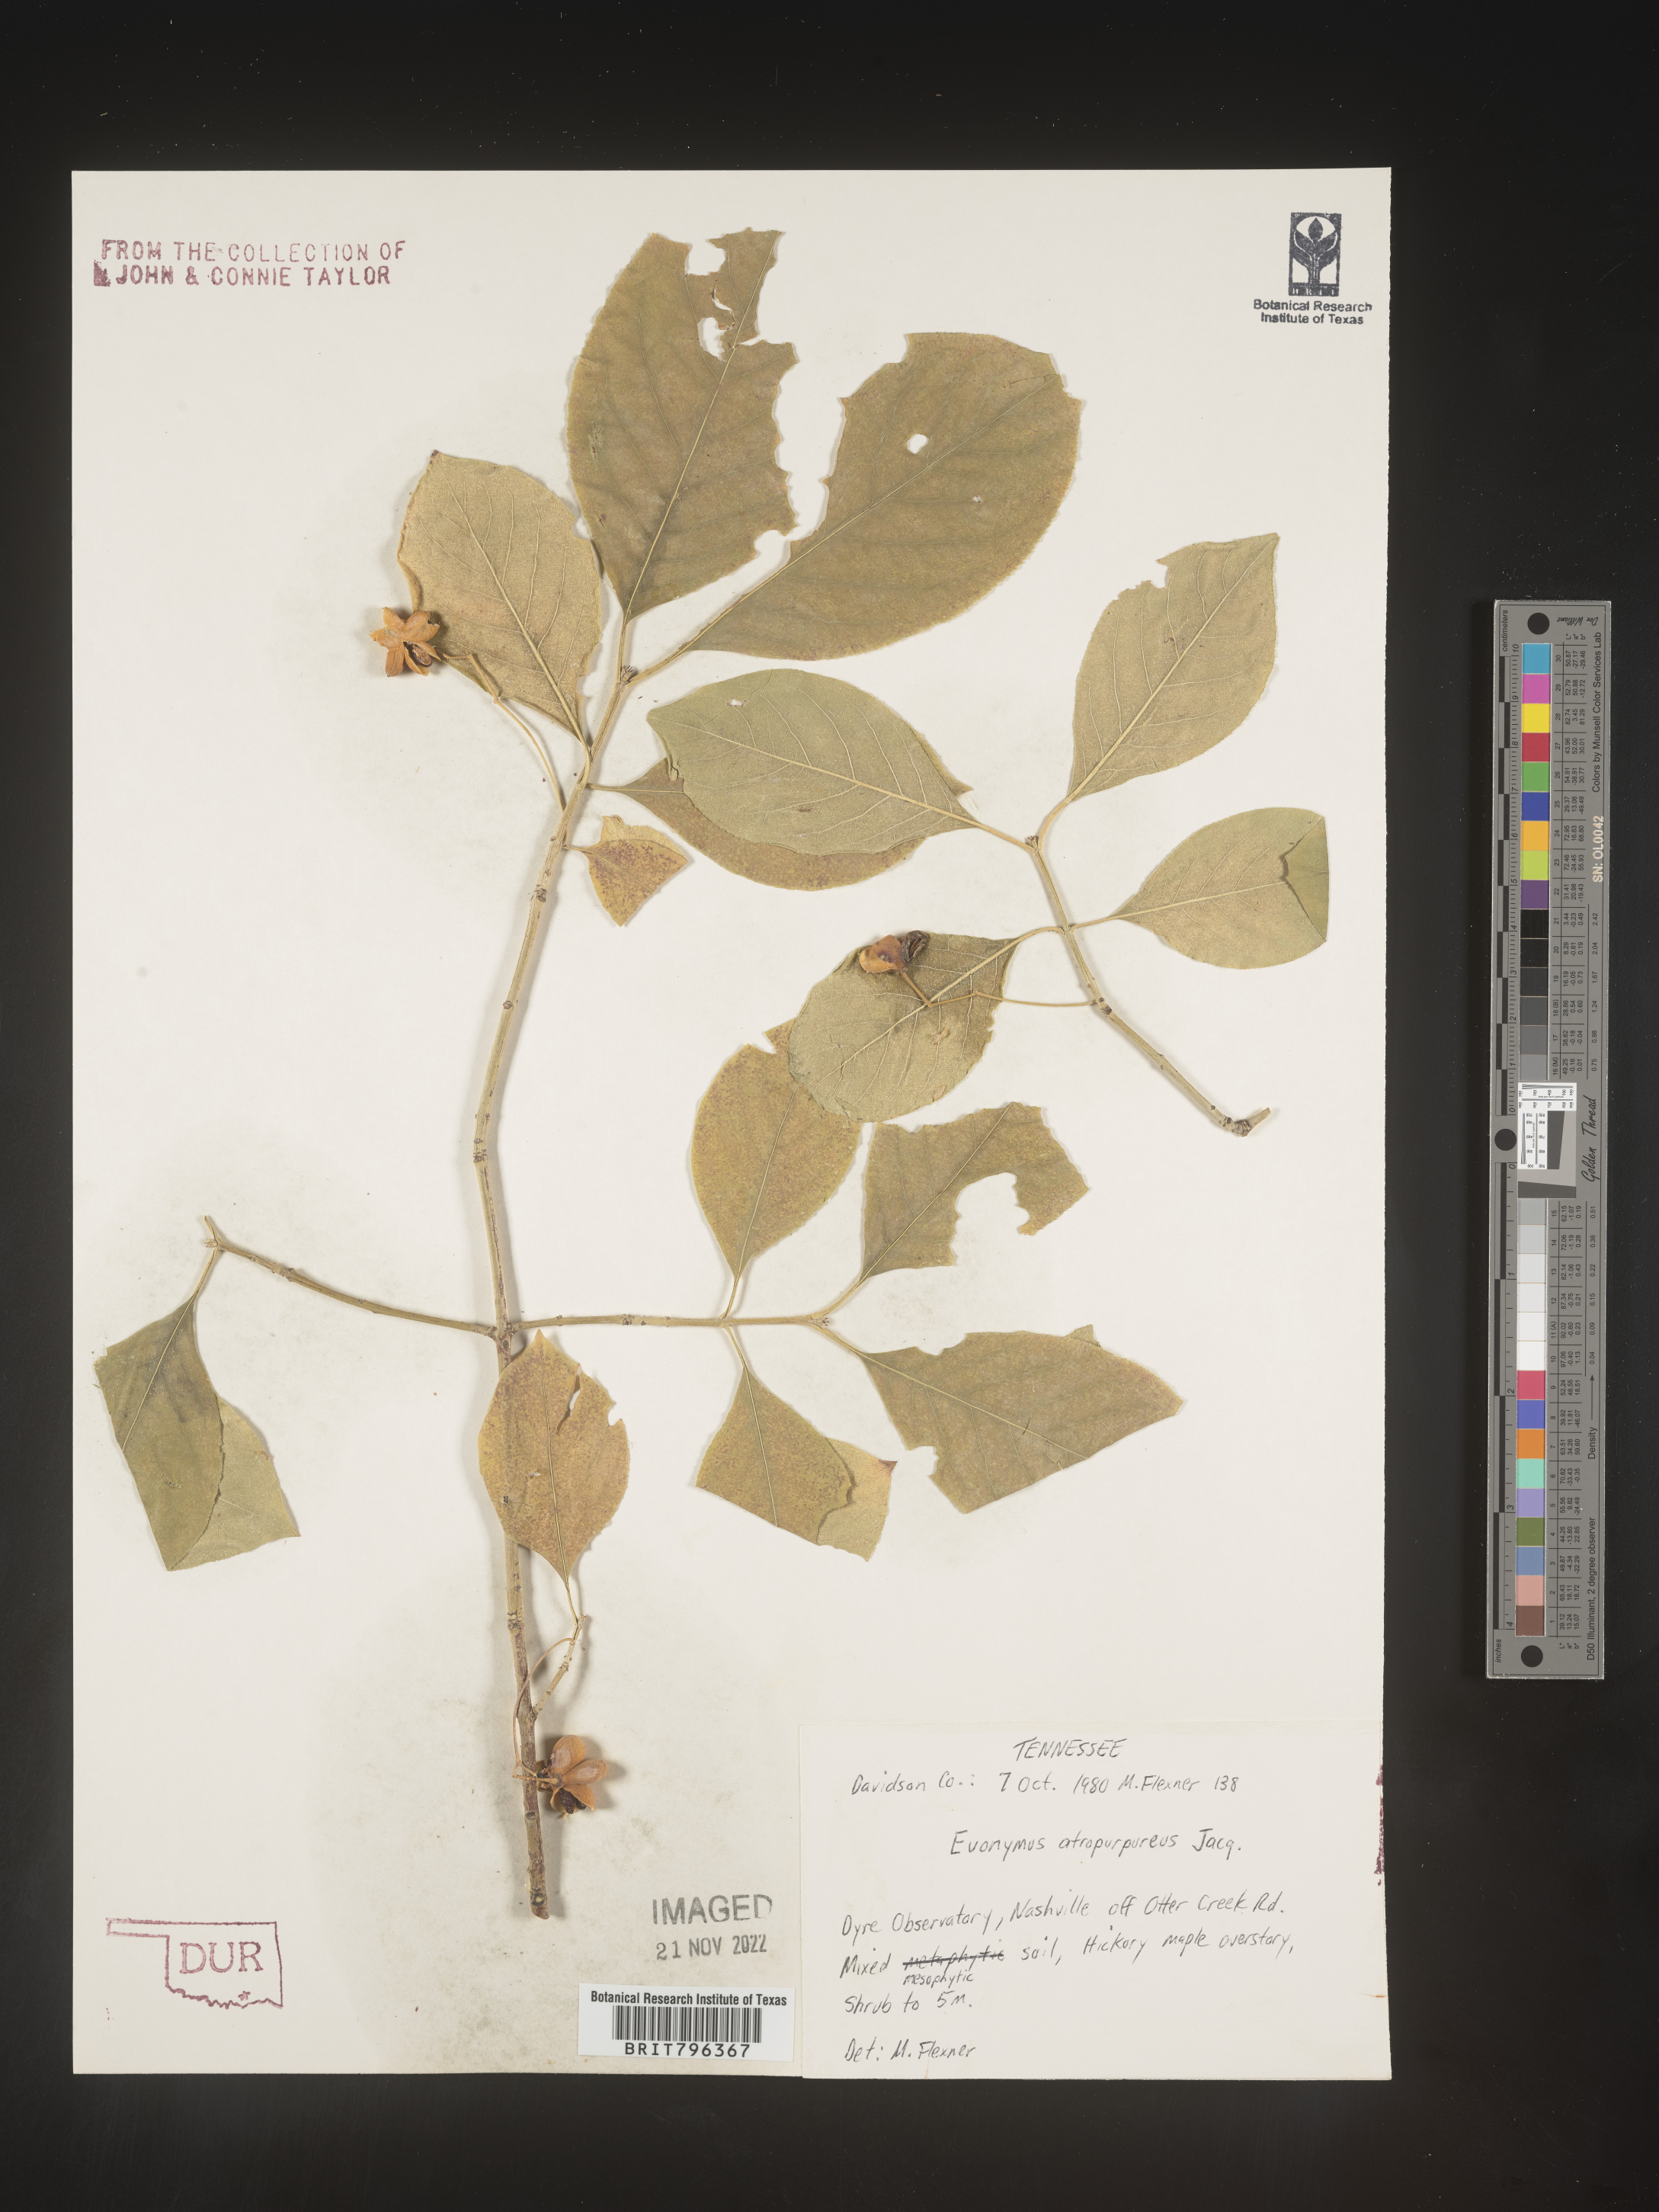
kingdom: Plantae
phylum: Tracheophyta
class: Magnoliopsida
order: Celastrales
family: Celastraceae
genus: Euonymus
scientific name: Euonymus atropurpureus
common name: Eastern wahoo
